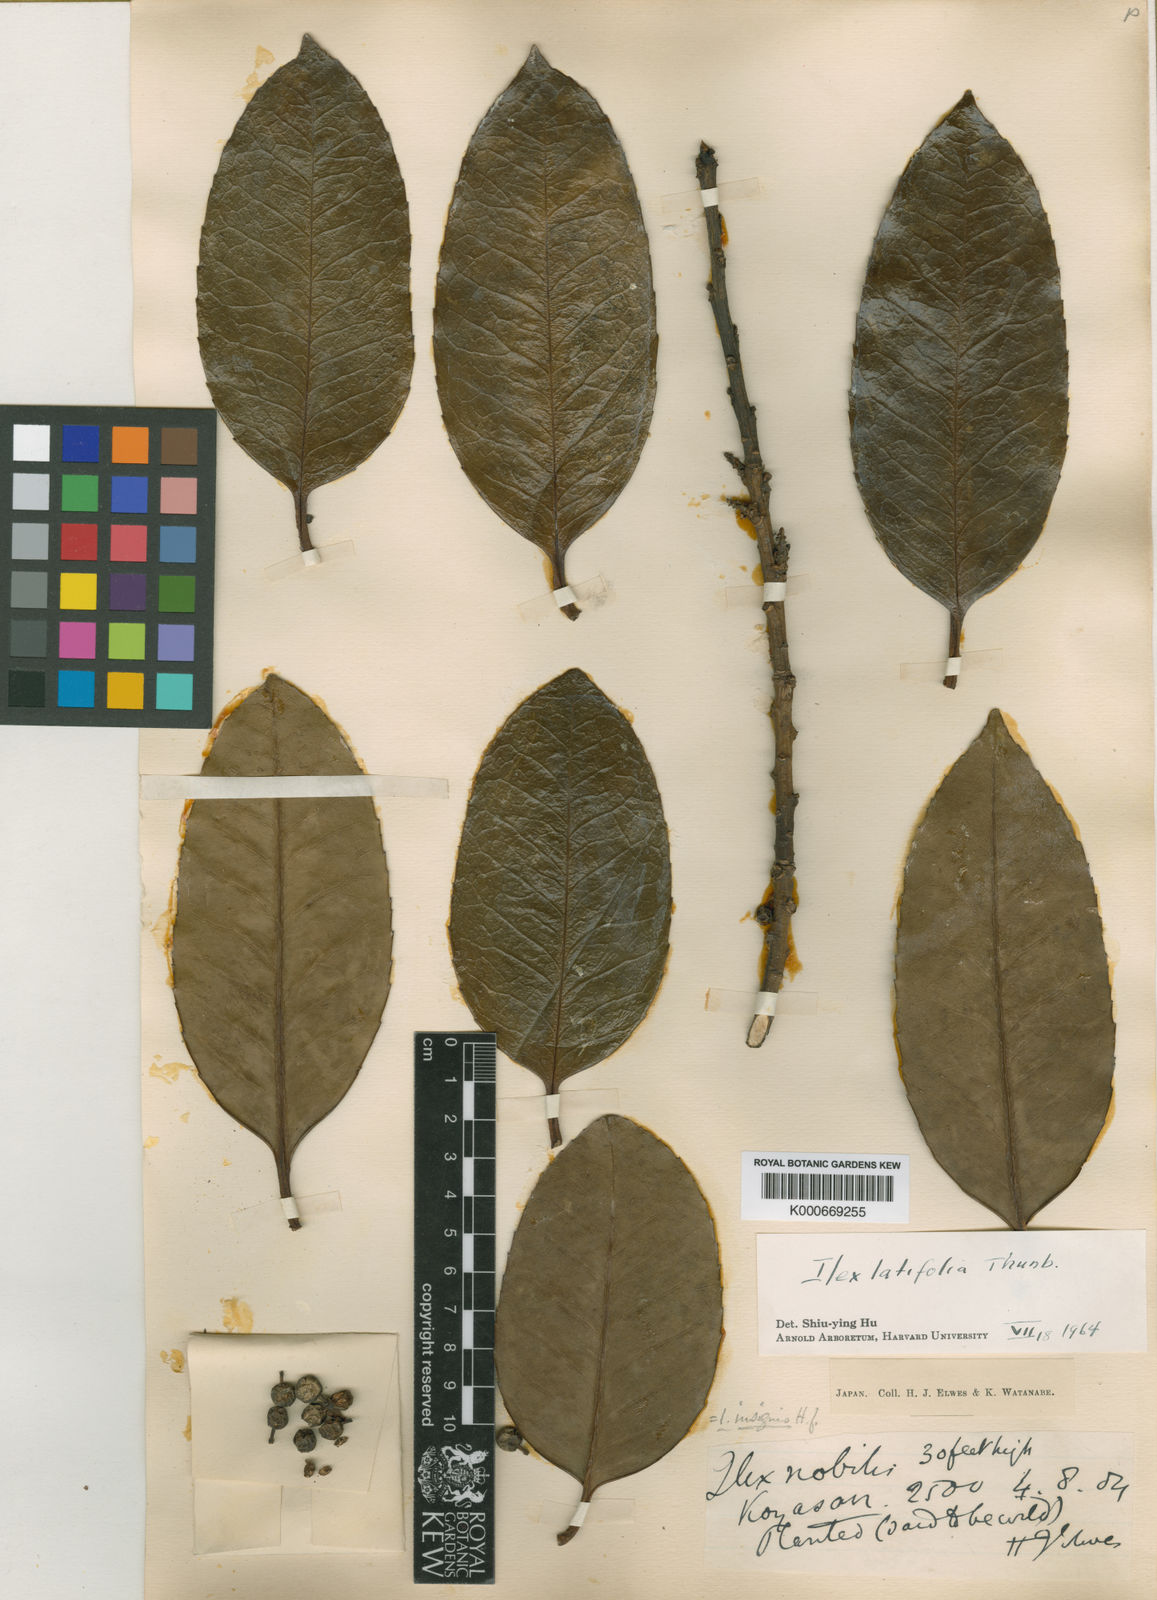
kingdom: Plantae
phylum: Tracheophyta
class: Magnoliopsida
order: Aquifoliales
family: Aquifoliaceae
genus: Ilex
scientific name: Ilex latifolia
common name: Tarajo holly
